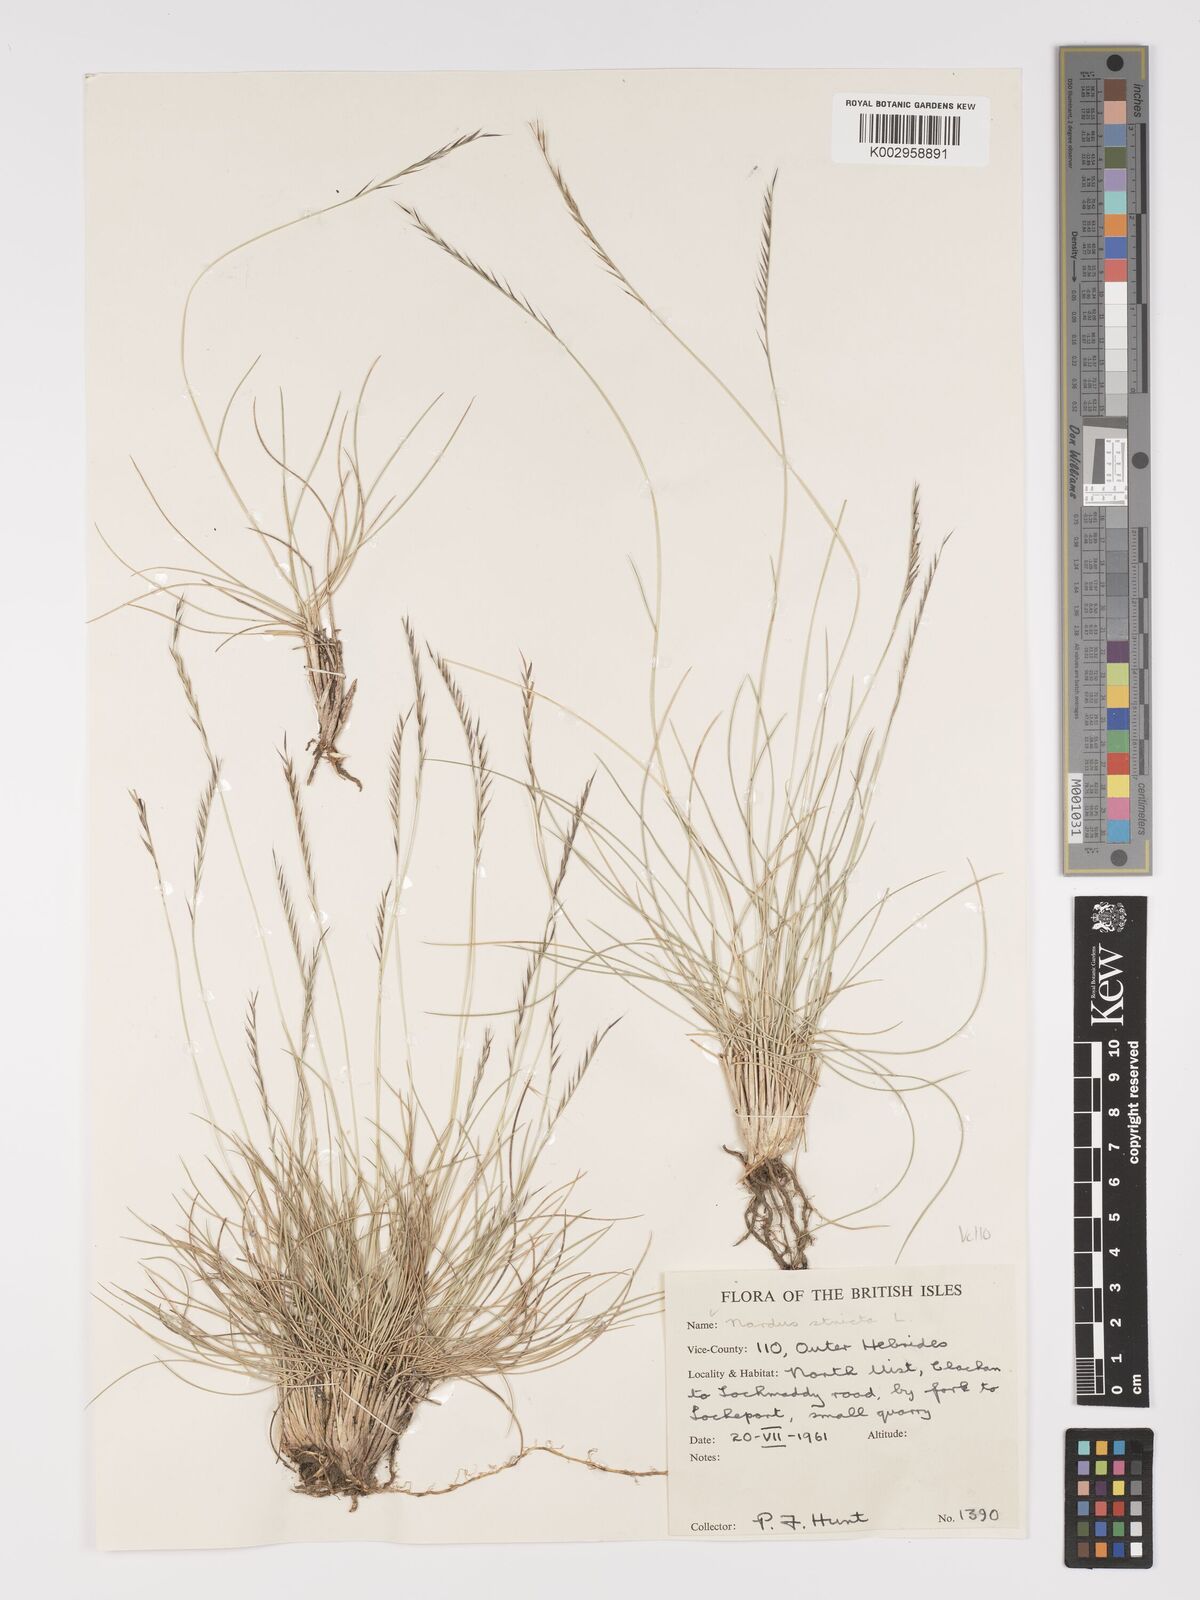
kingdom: Plantae
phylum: Tracheophyta
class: Liliopsida
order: Poales
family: Poaceae
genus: Nardus
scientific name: Nardus stricta
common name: Mat-grass
